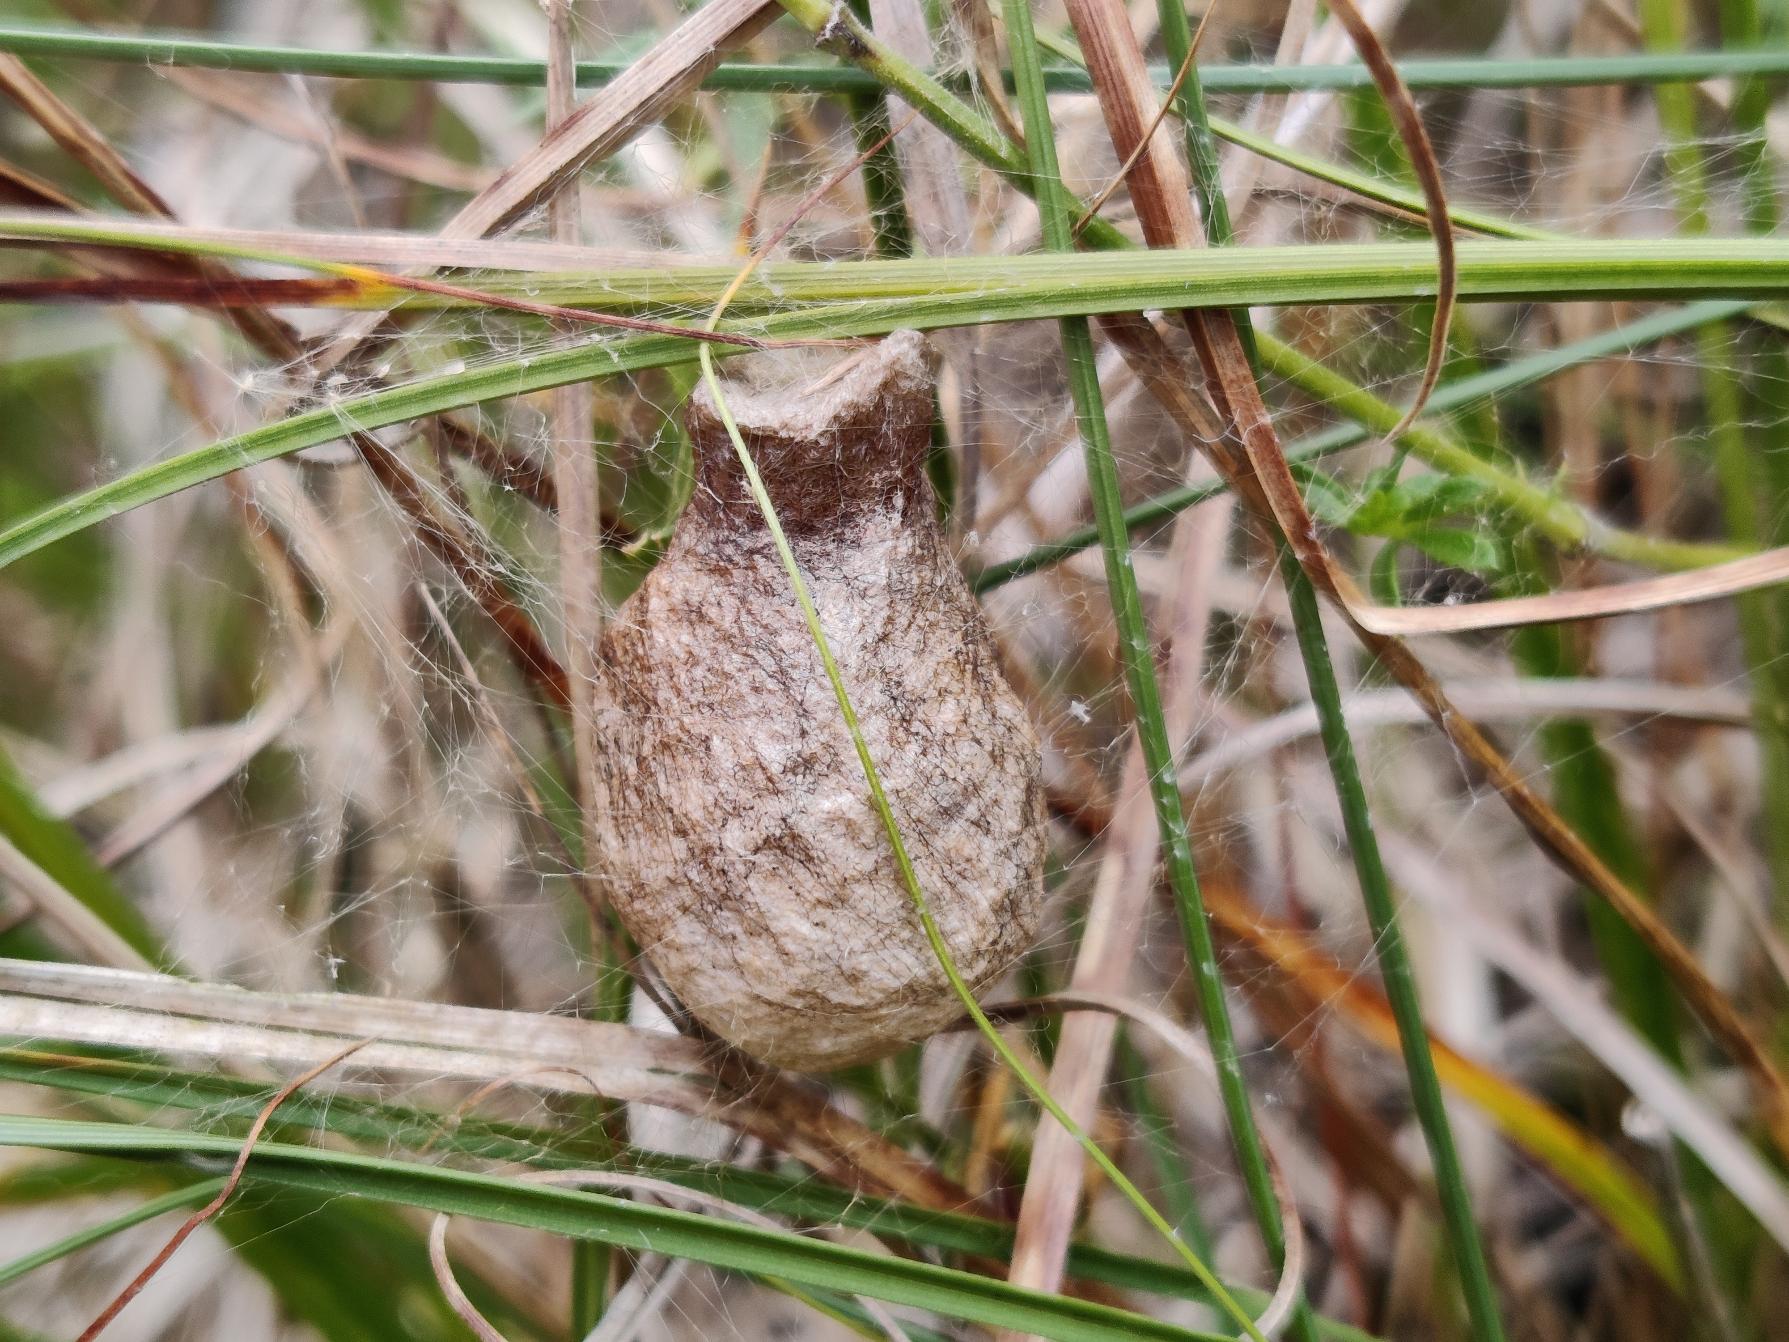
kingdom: Animalia
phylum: Arthropoda
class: Arachnida
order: Araneae
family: Araneidae
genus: Argiope
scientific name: Argiope bruennichi
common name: Hvepseedderkop
